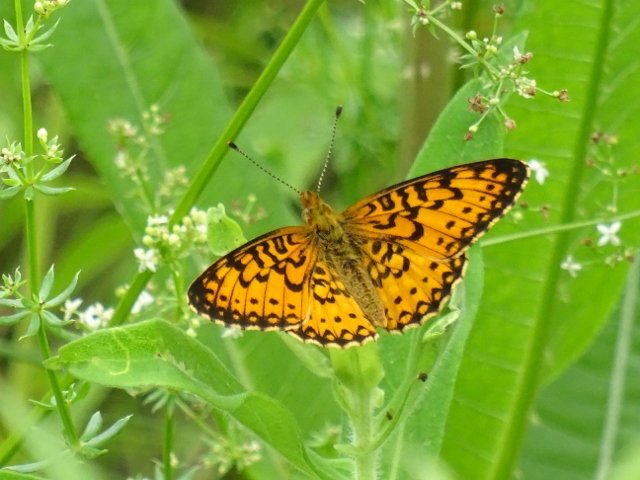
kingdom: Animalia
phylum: Arthropoda
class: Insecta
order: Lepidoptera
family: Nymphalidae
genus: Boloria
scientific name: Boloria selene
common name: Silver-bordered Fritillary
